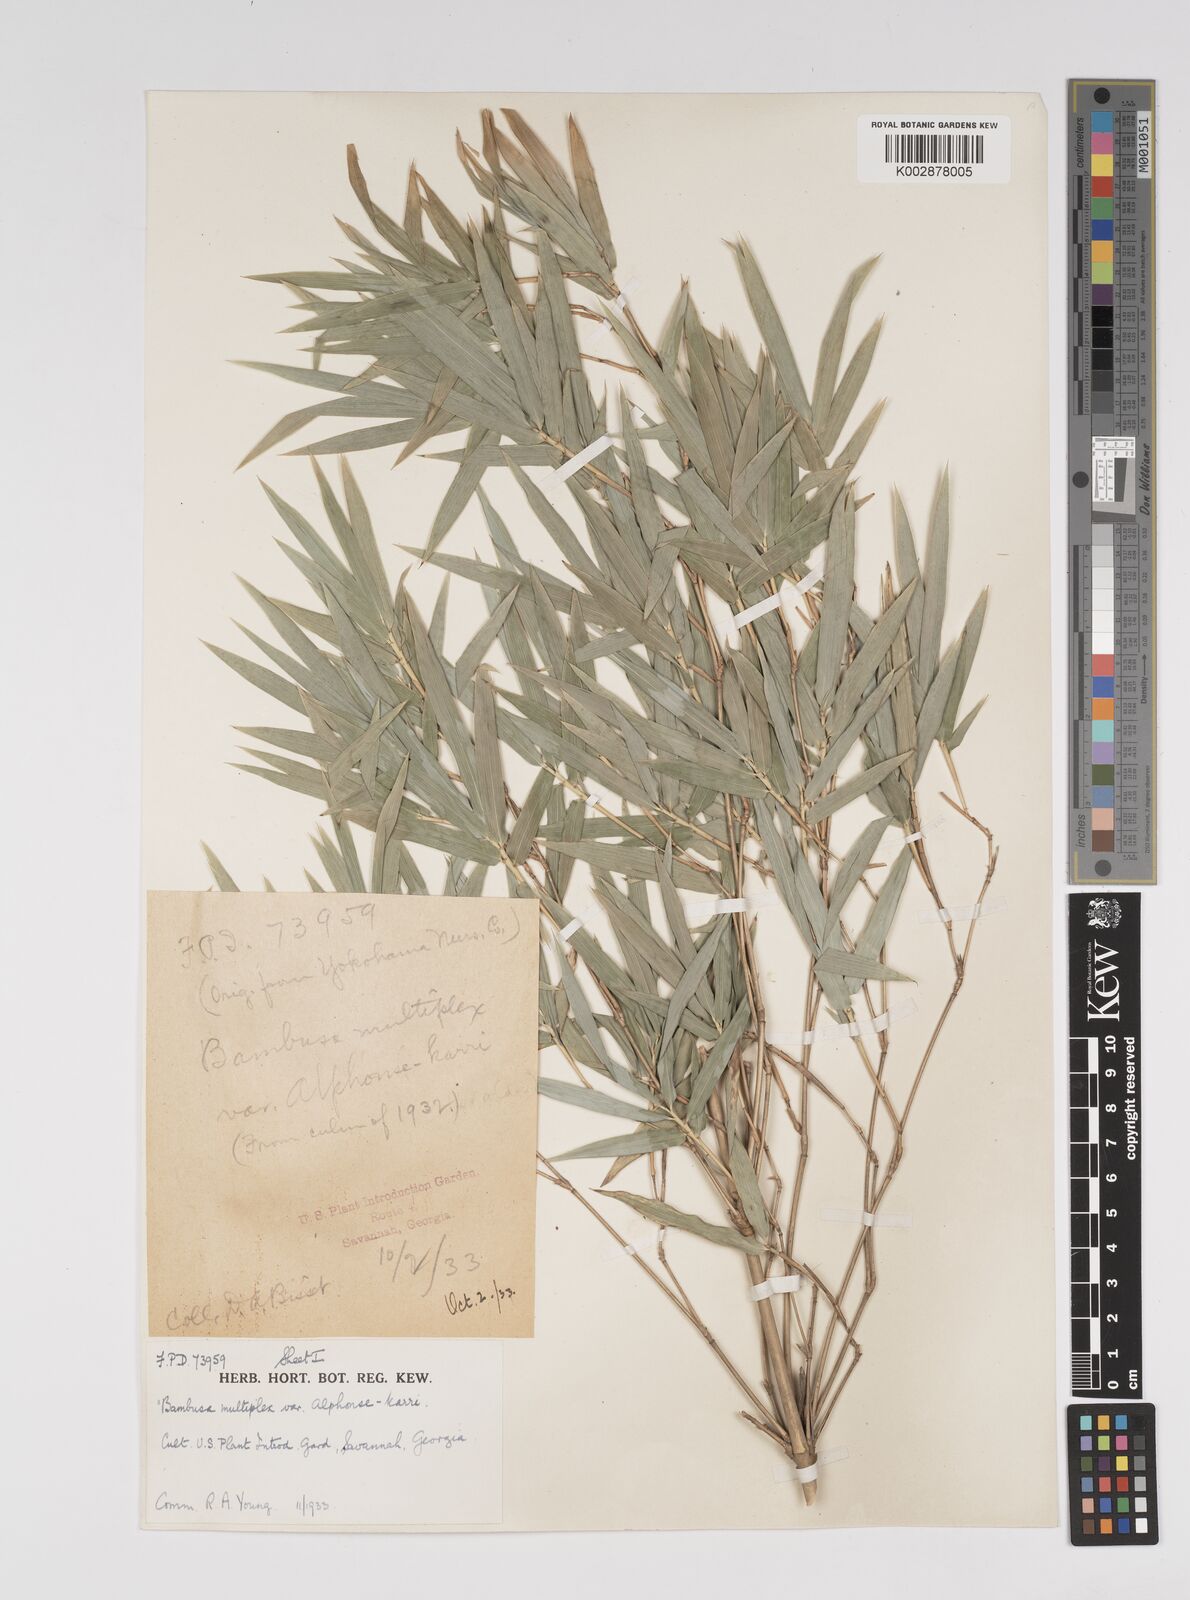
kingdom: Plantae
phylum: Tracheophyta
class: Liliopsida
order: Poales
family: Poaceae
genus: Bambusa
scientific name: Bambusa multiplex
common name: Hedge bamboo
